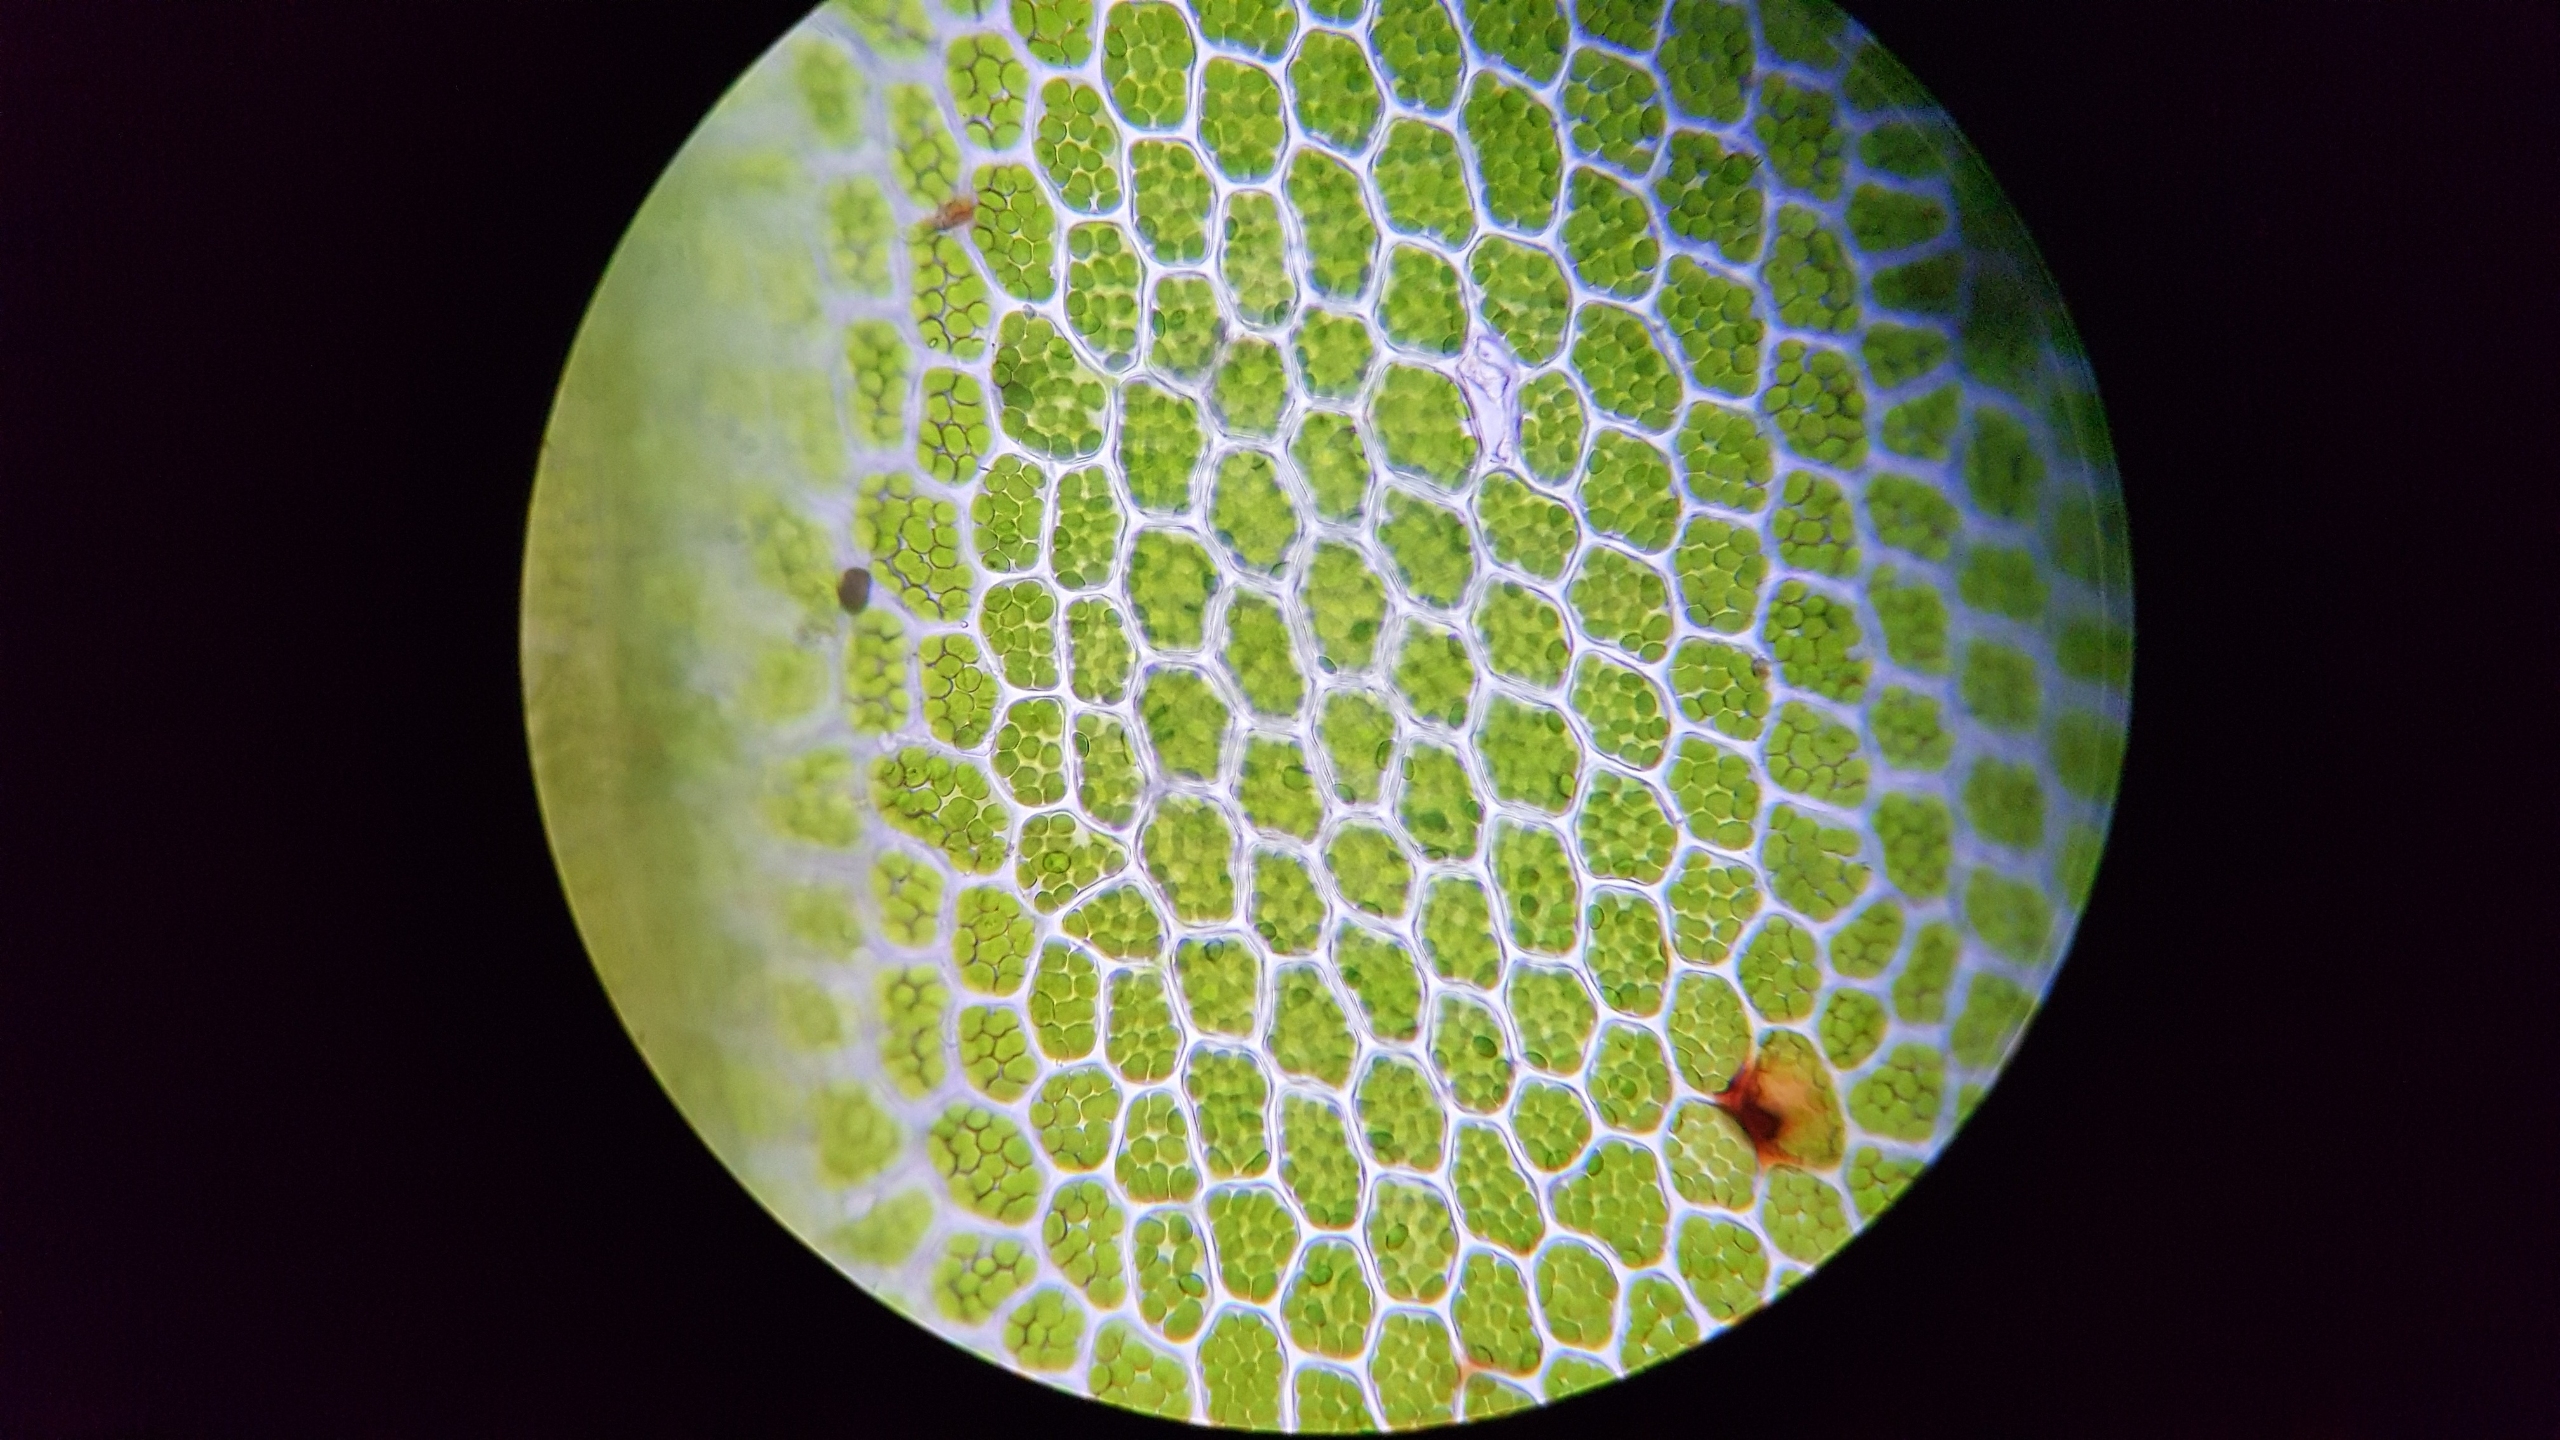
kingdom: Plantae
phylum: Bryophyta
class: Bryopsida
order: Bryales
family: Mniaceae
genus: Mnium
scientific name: Mnium marginatum
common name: Rødlig stjernemos
